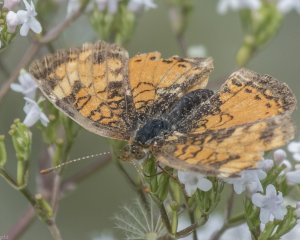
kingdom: Animalia
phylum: Arthropoda
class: Insecta
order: Lepidoptera
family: Nymphalidae
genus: Phyciodes
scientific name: Phyciodes tharos
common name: Northern Crescent
